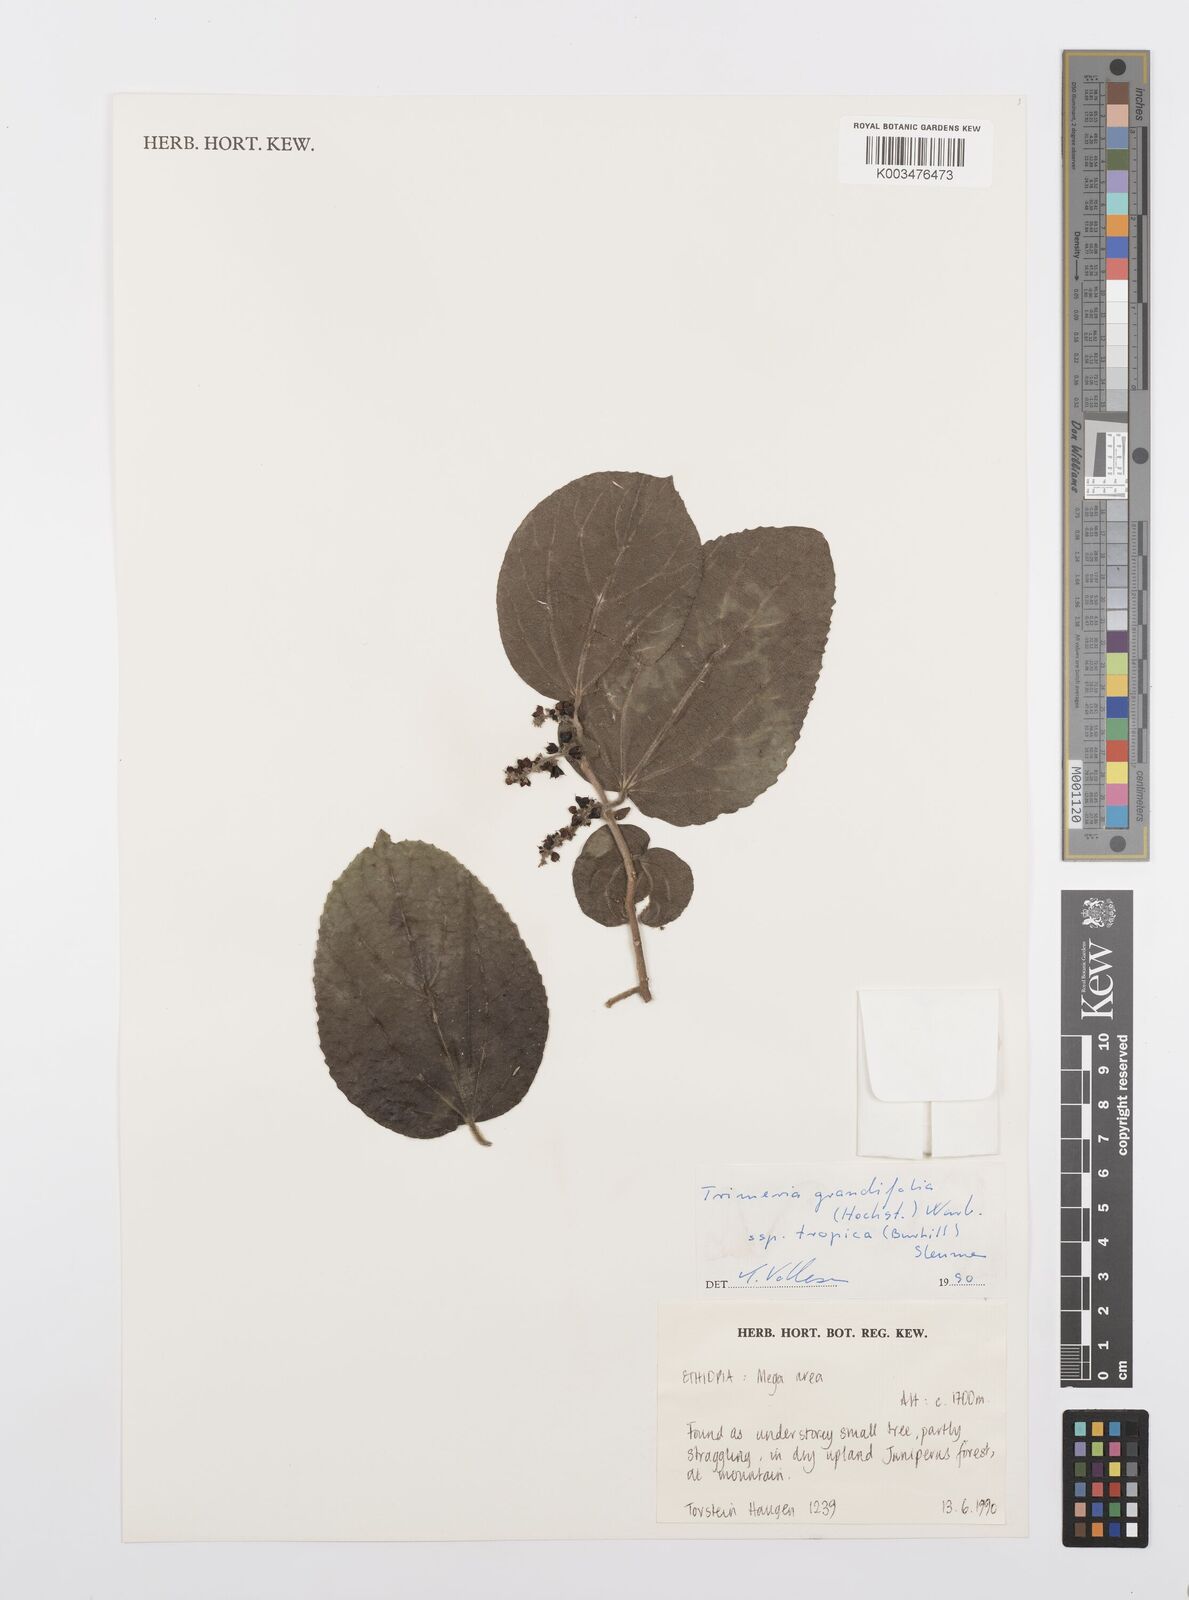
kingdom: Plantae
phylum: Tracheophyta
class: Magnoliopsida
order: Malpighiales
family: Salicaceae
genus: Trimeria
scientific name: Trimeria grandifolia
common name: Wild mulberry
